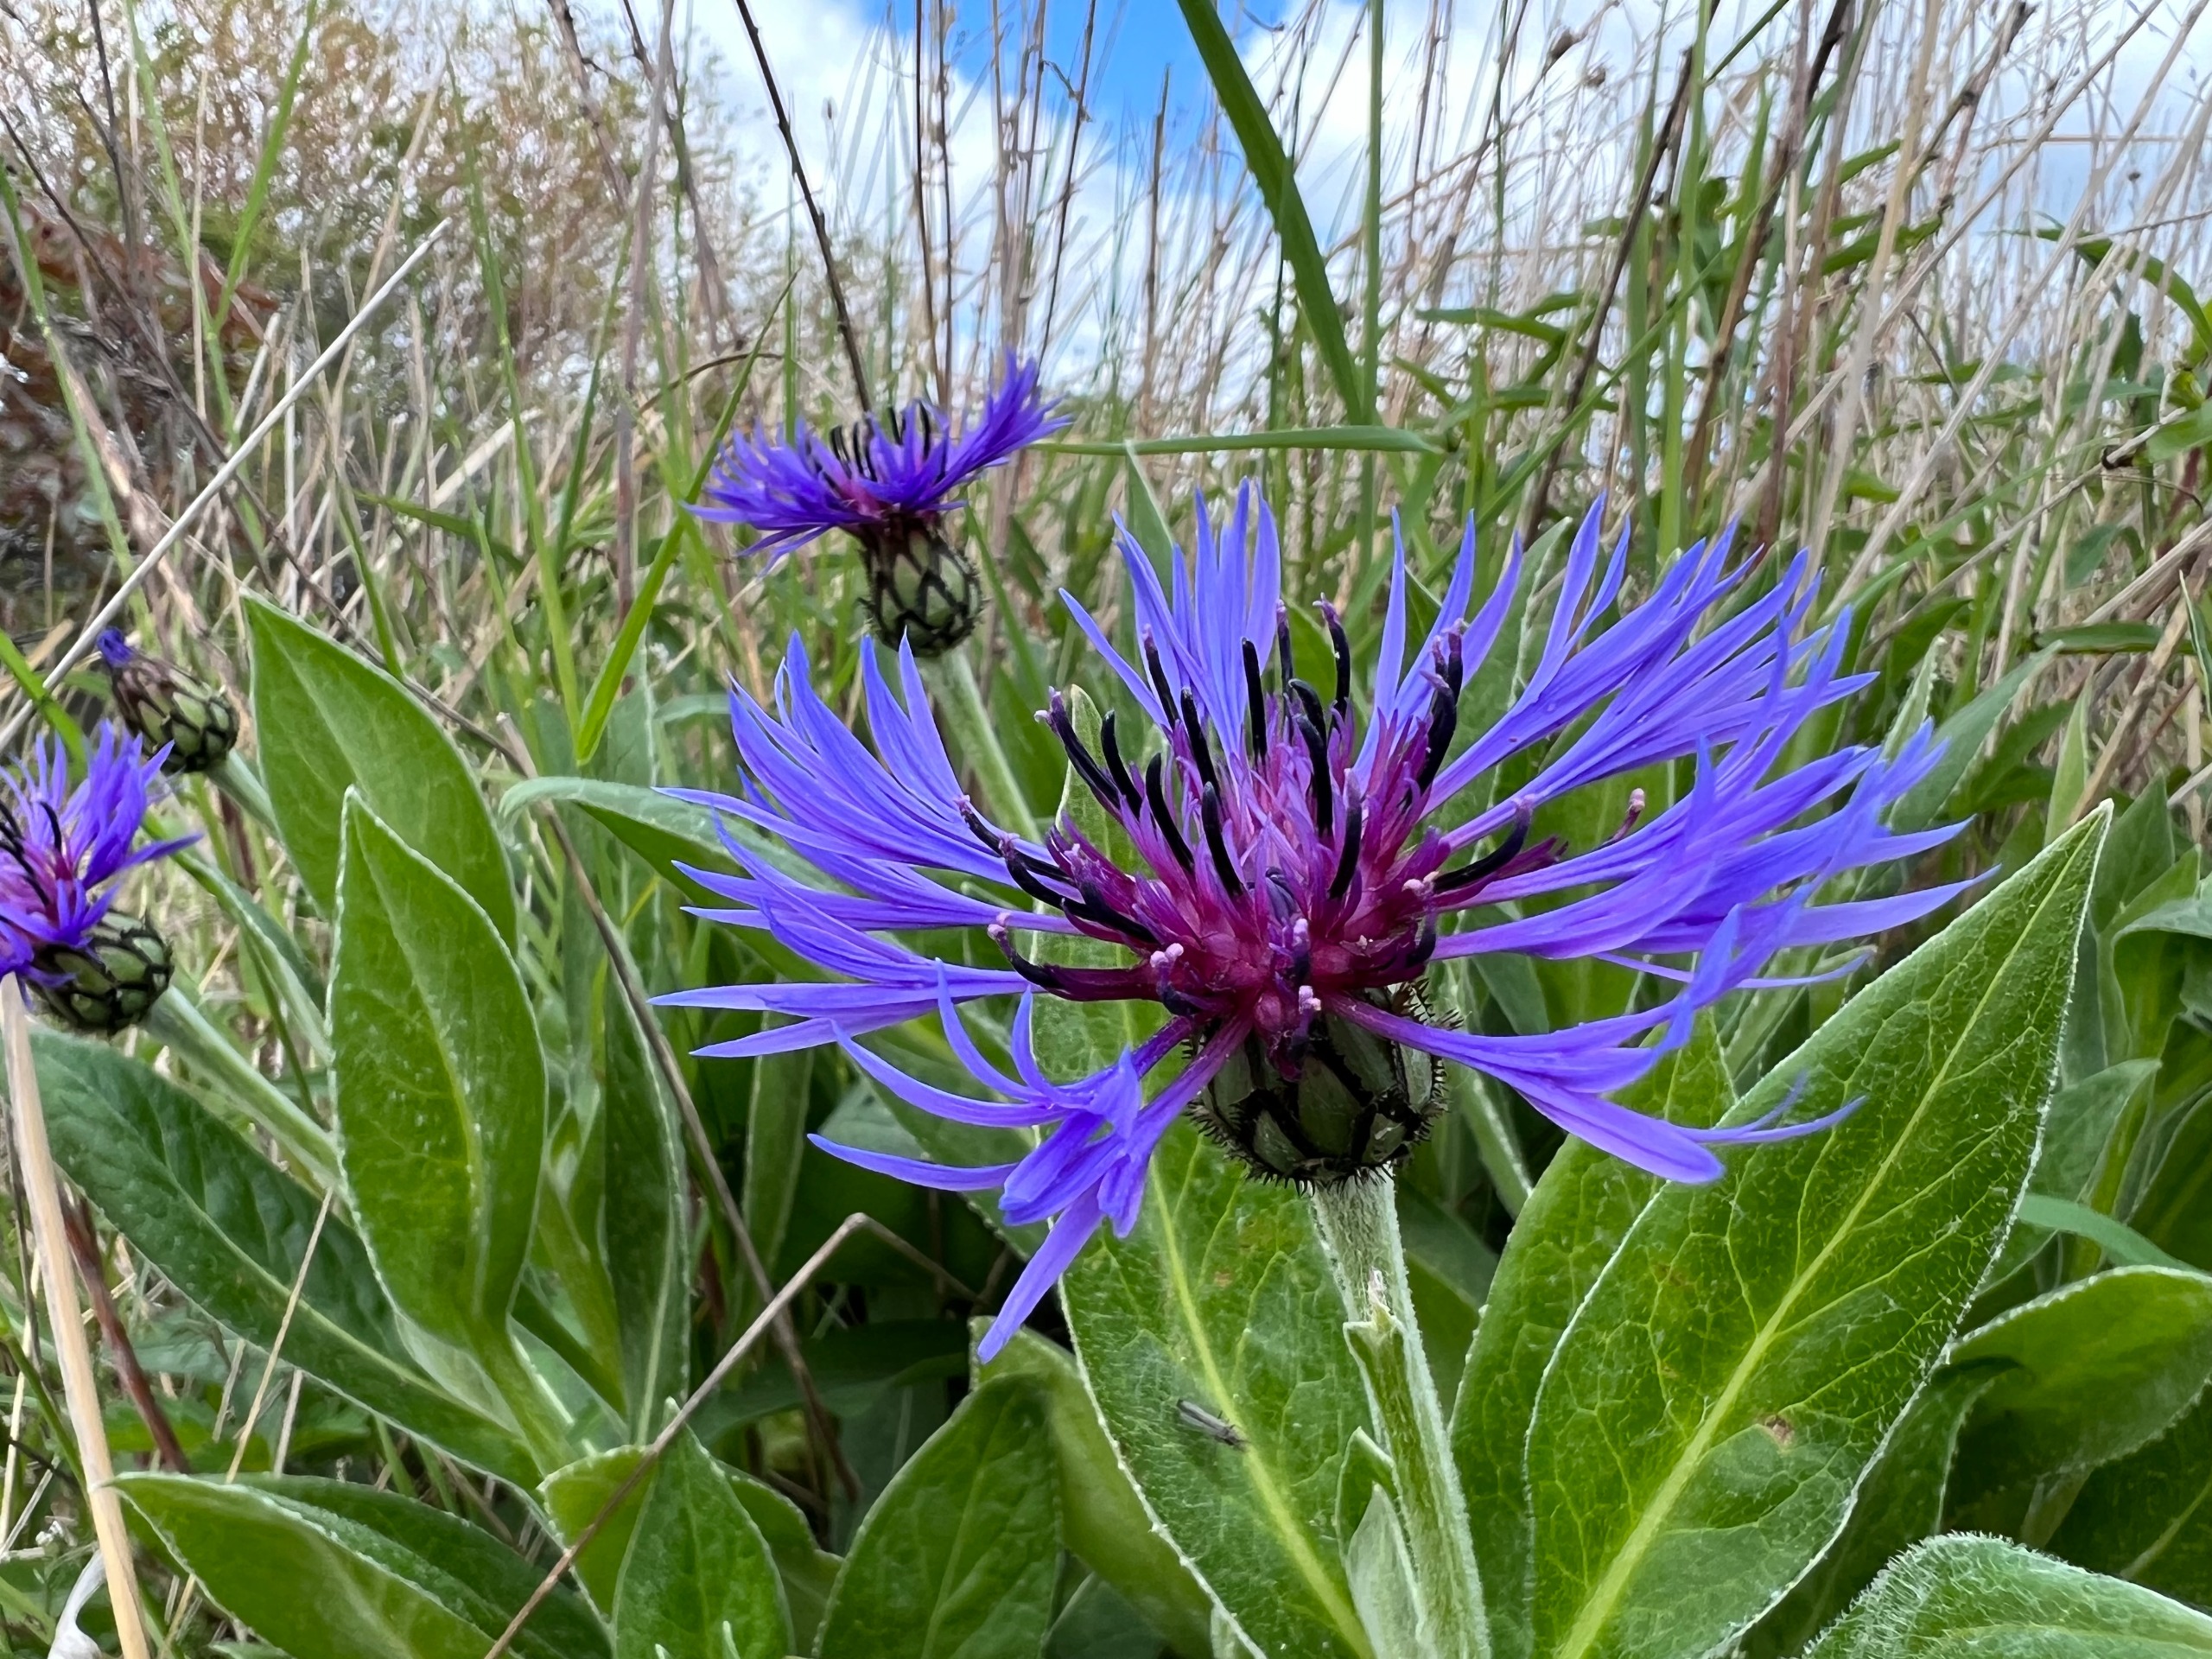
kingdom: Plantae
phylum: Tracheophyta
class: Magnoliopsida
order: Asterales
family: Asteraceae
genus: Centaurea
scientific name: Centaurea montana
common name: Bjerg-knopurt
